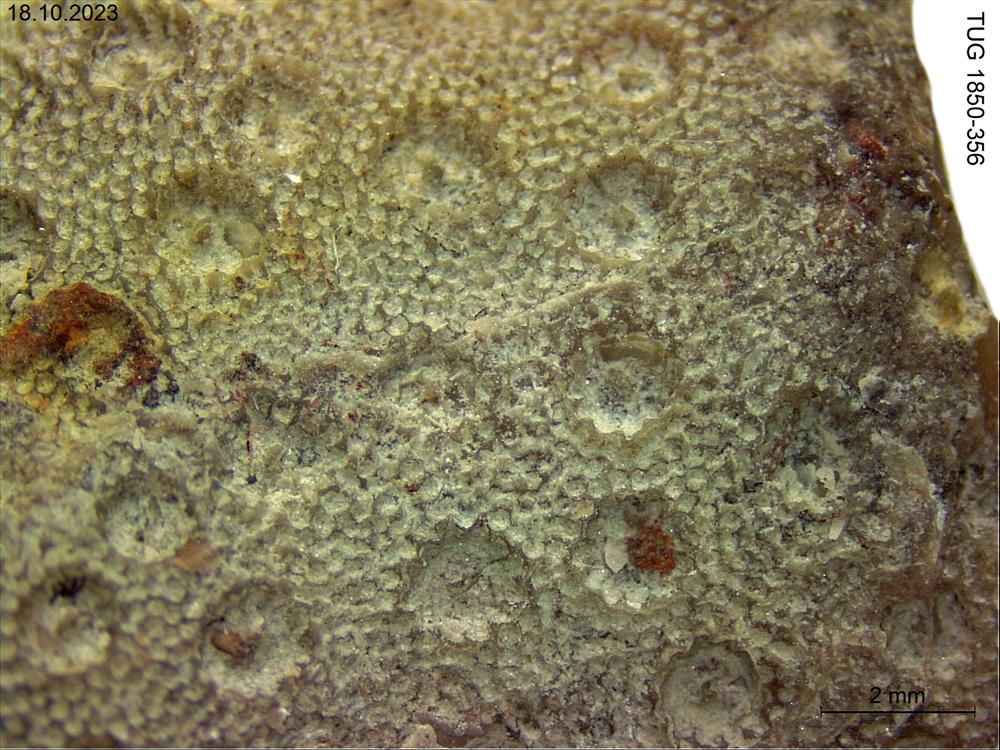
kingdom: Animalia
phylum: Cnidaria
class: Anthozoa
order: Heliolitina
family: Heliolitidae
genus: Heliolites
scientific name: Heliolites
